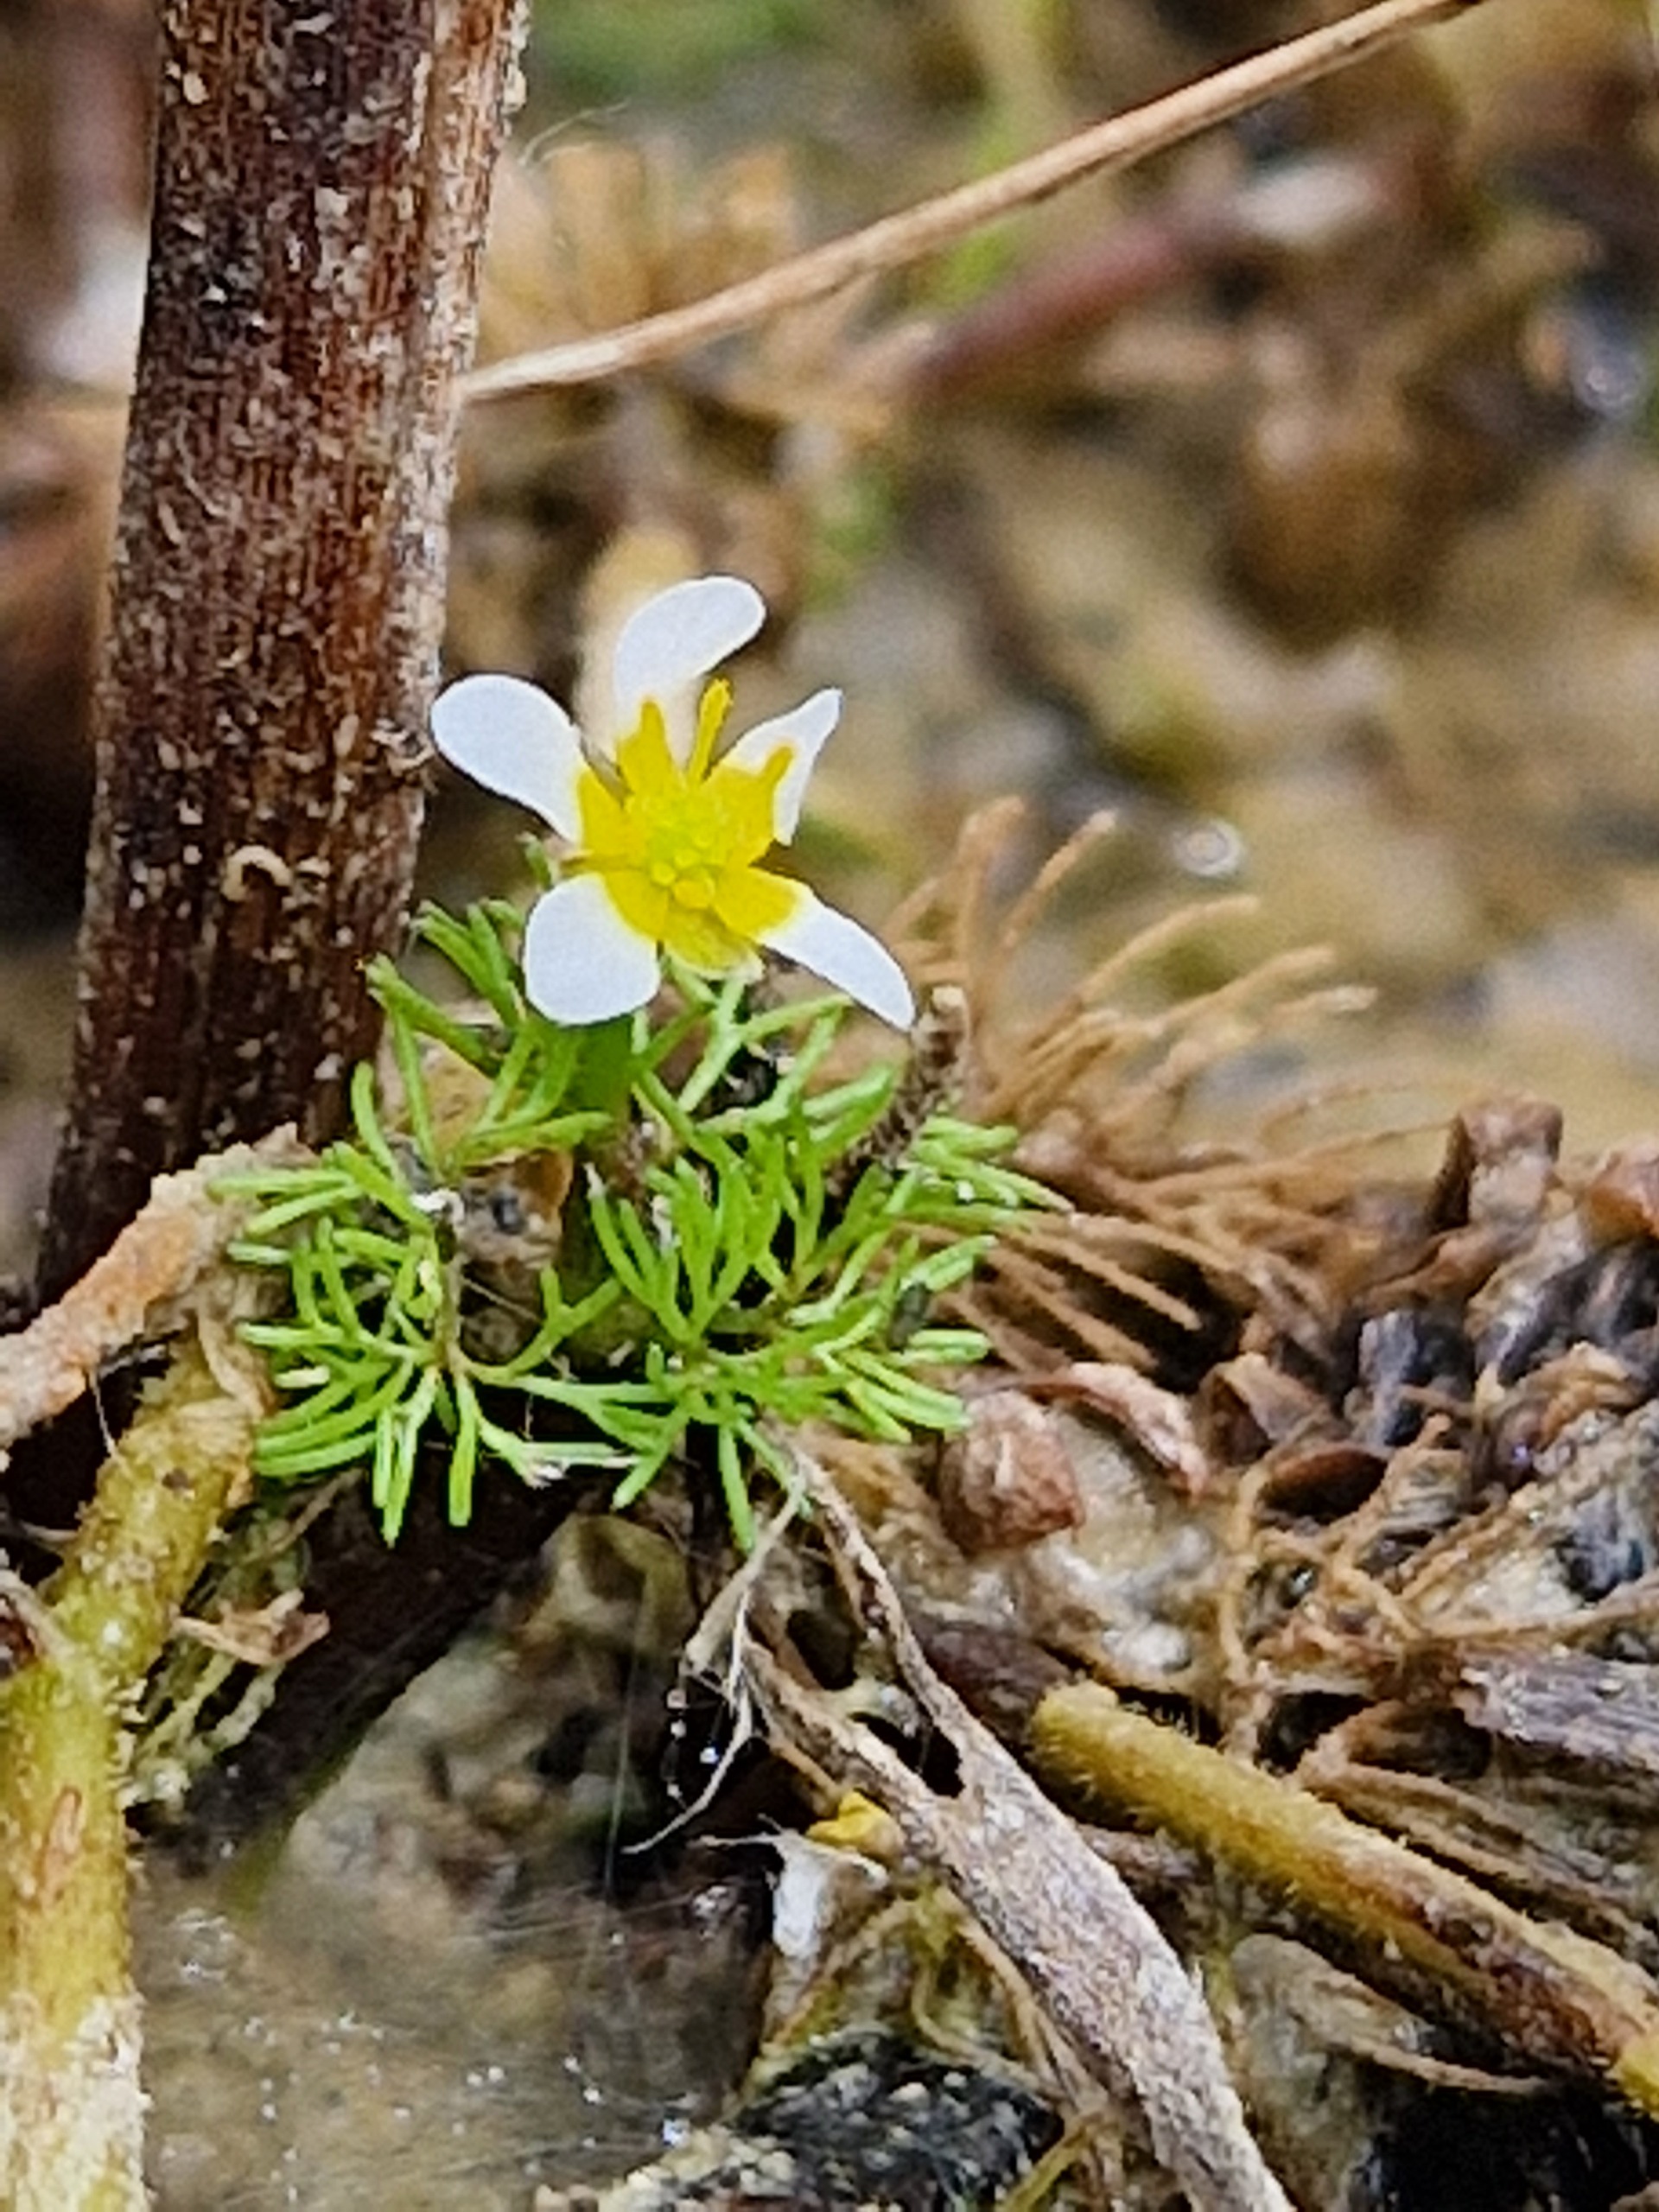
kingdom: Plantae
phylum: Tracheophyta
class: Magnoliopsida
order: Ranunculales
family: Ranunculaceae
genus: Ranunculus
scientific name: Ranunculus aquatilis
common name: Almindelig vandranunkel
